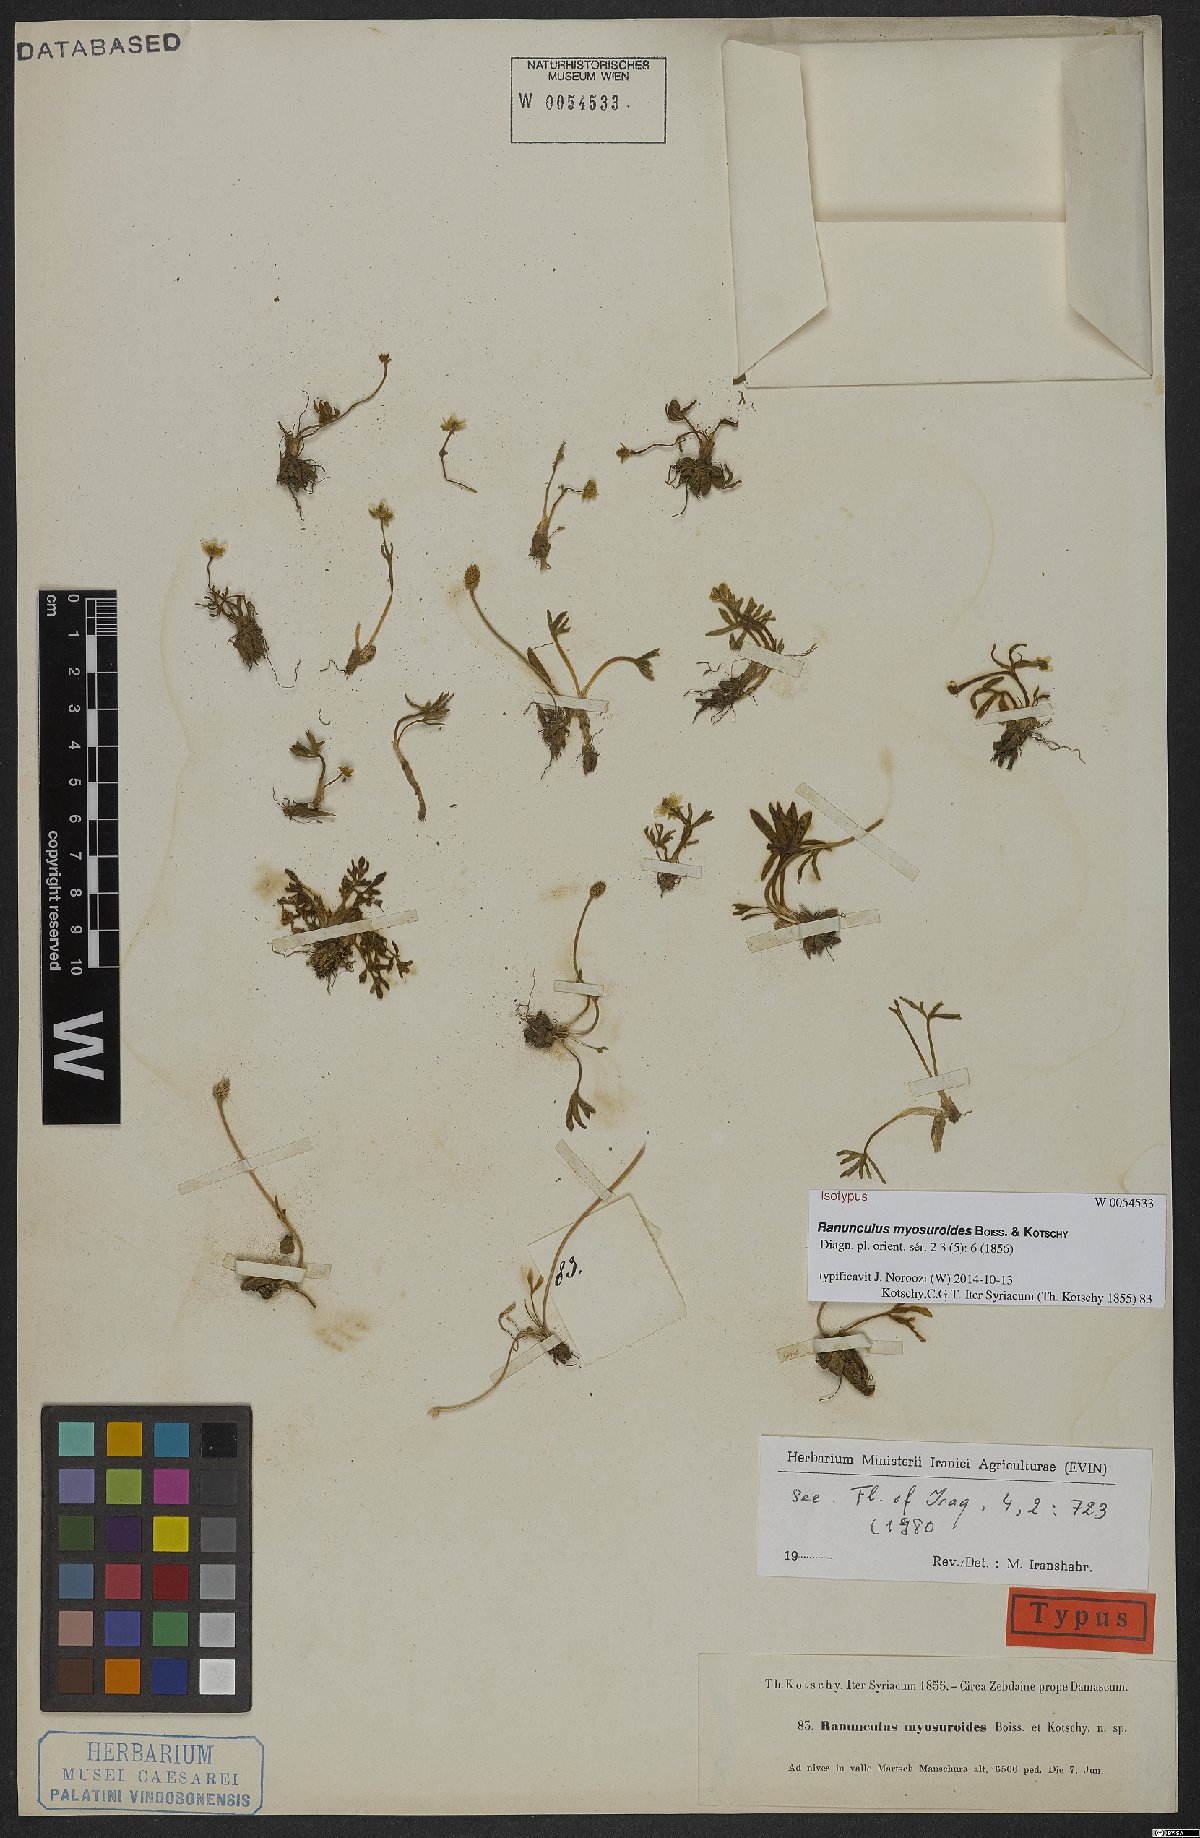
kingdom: Plantae
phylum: Tracheophyta
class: Magnoliopsida
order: Ranunculales
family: Ranunculaceae
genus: Ranunculus
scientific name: Ranunculus myosuroides
